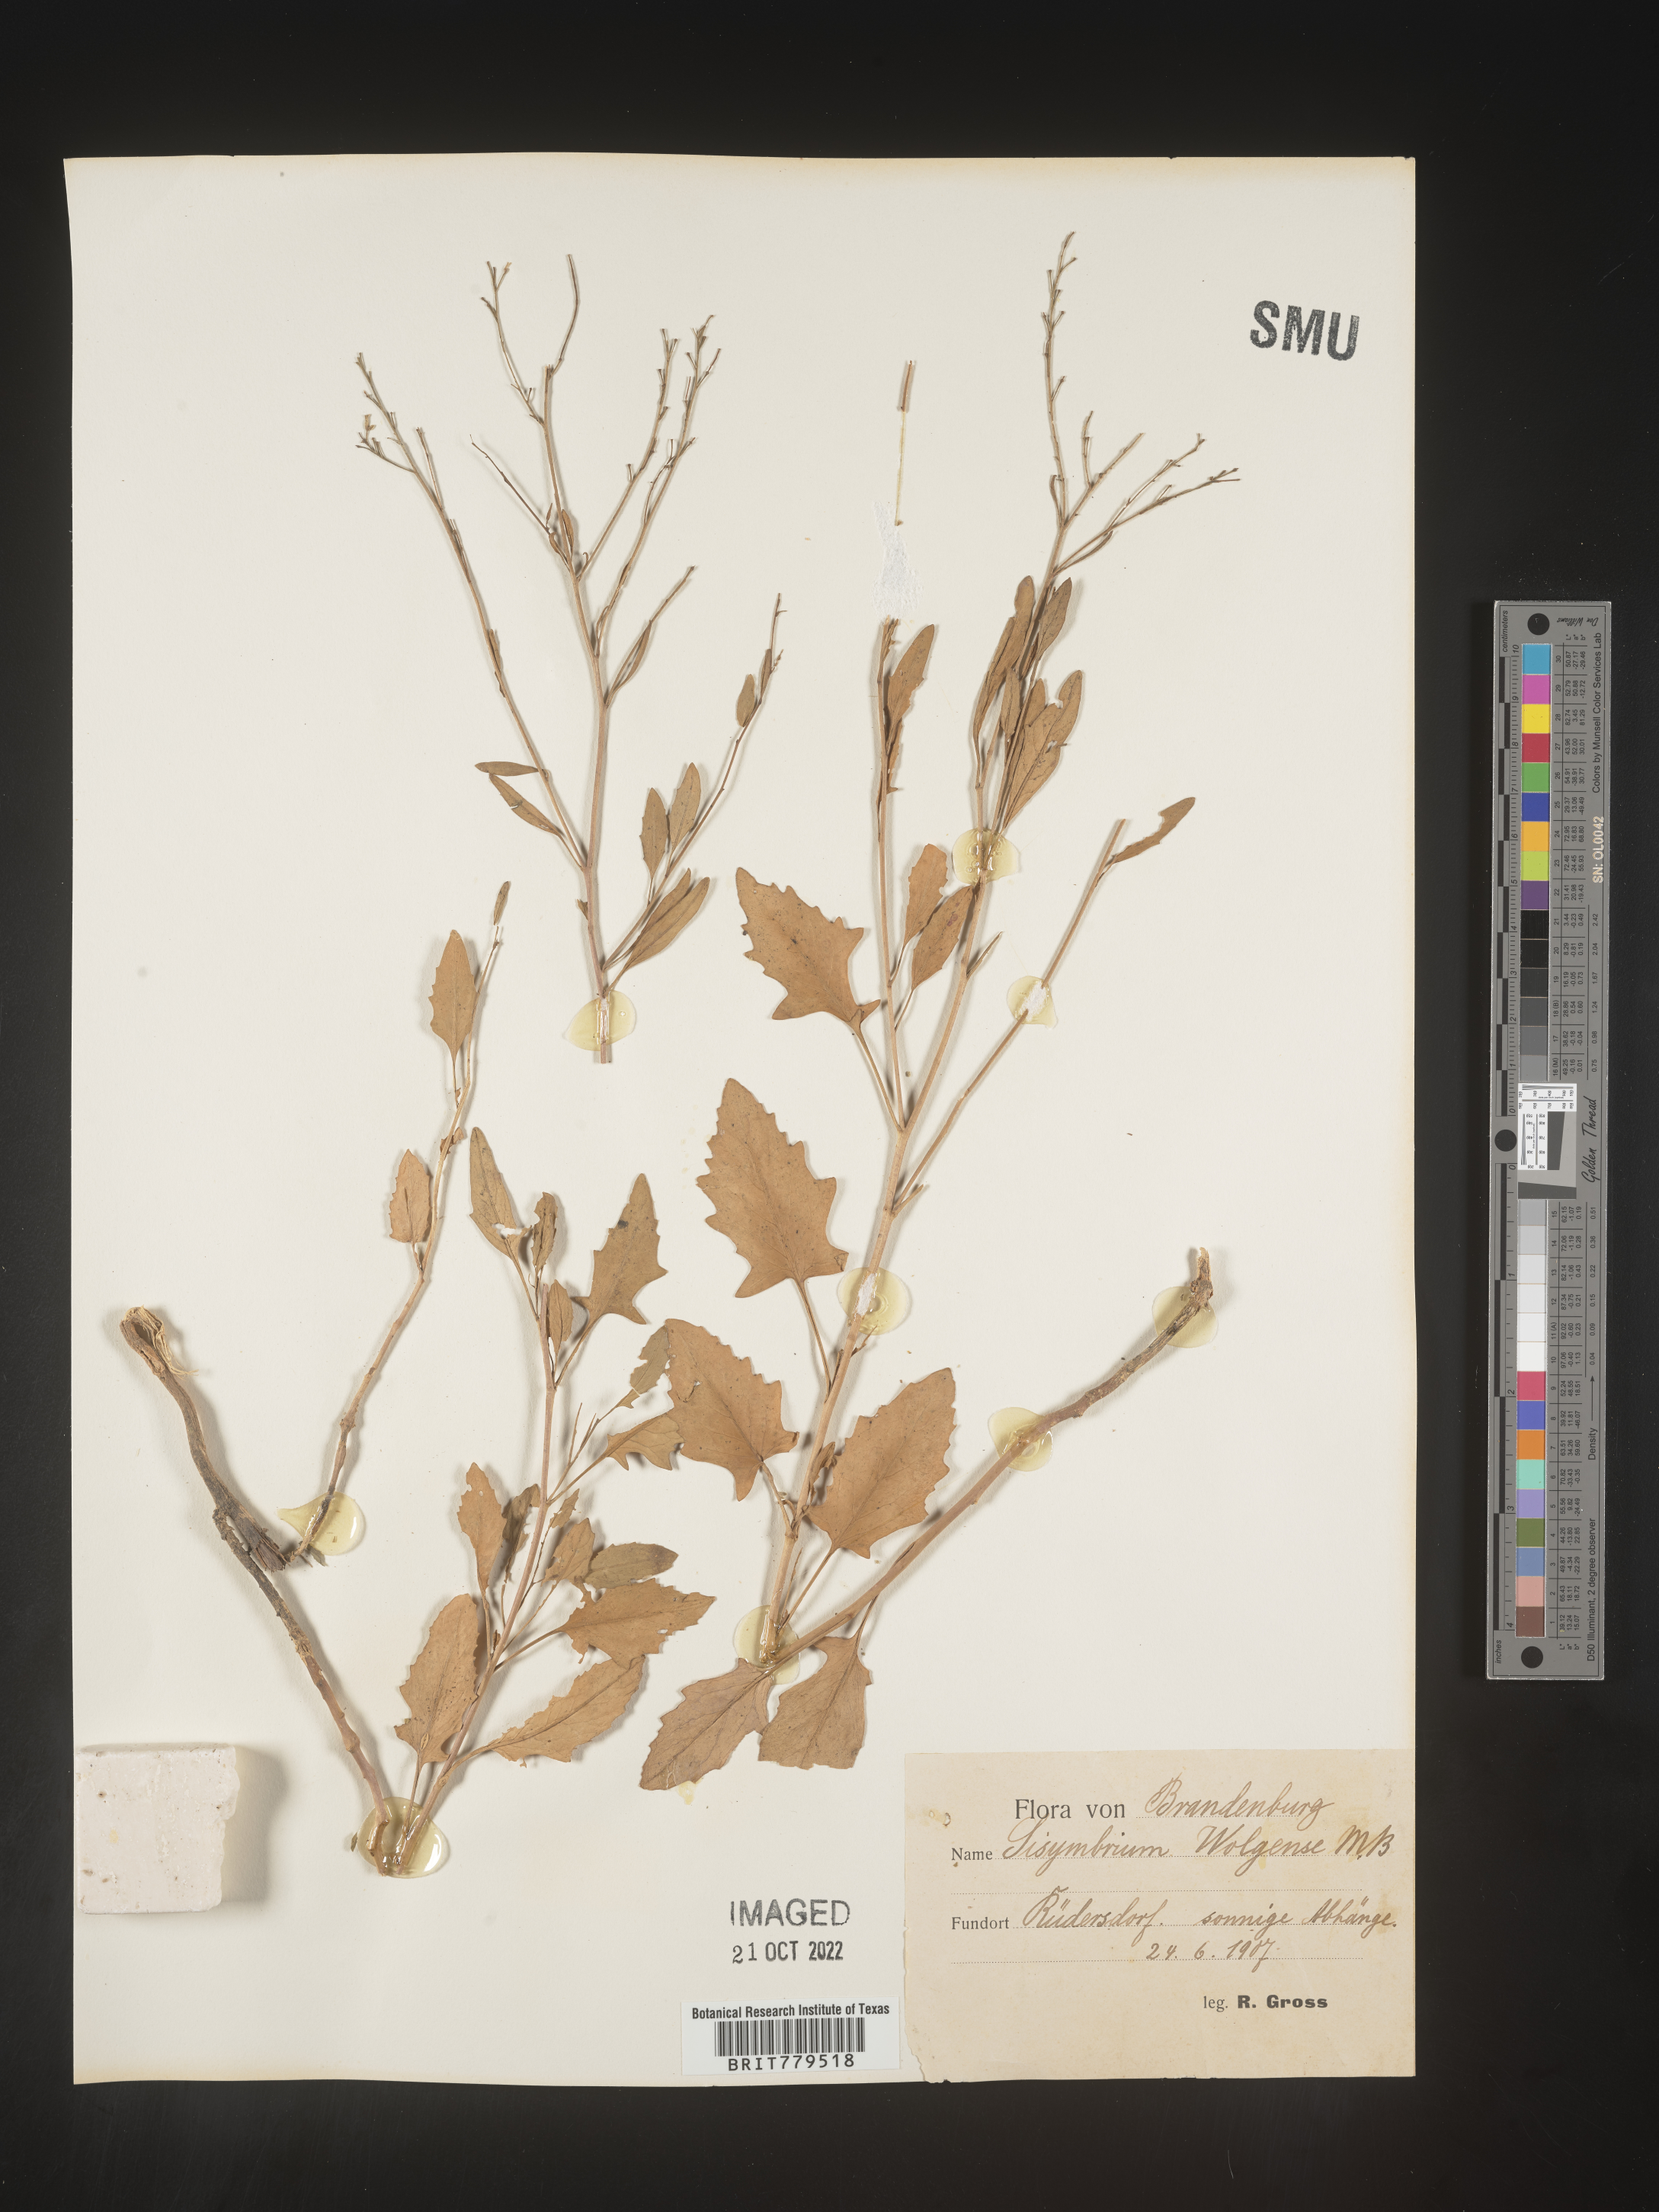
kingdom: Plantae
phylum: Tracheophyta
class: Magnoliopsida
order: Brassicales
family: Brassicaceae
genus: Sisymbrium
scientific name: Sisymbrium
